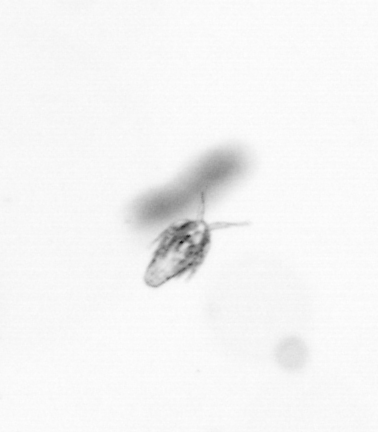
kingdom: Animalia
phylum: Arthropoda
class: Copepoda
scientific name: Copepoda
